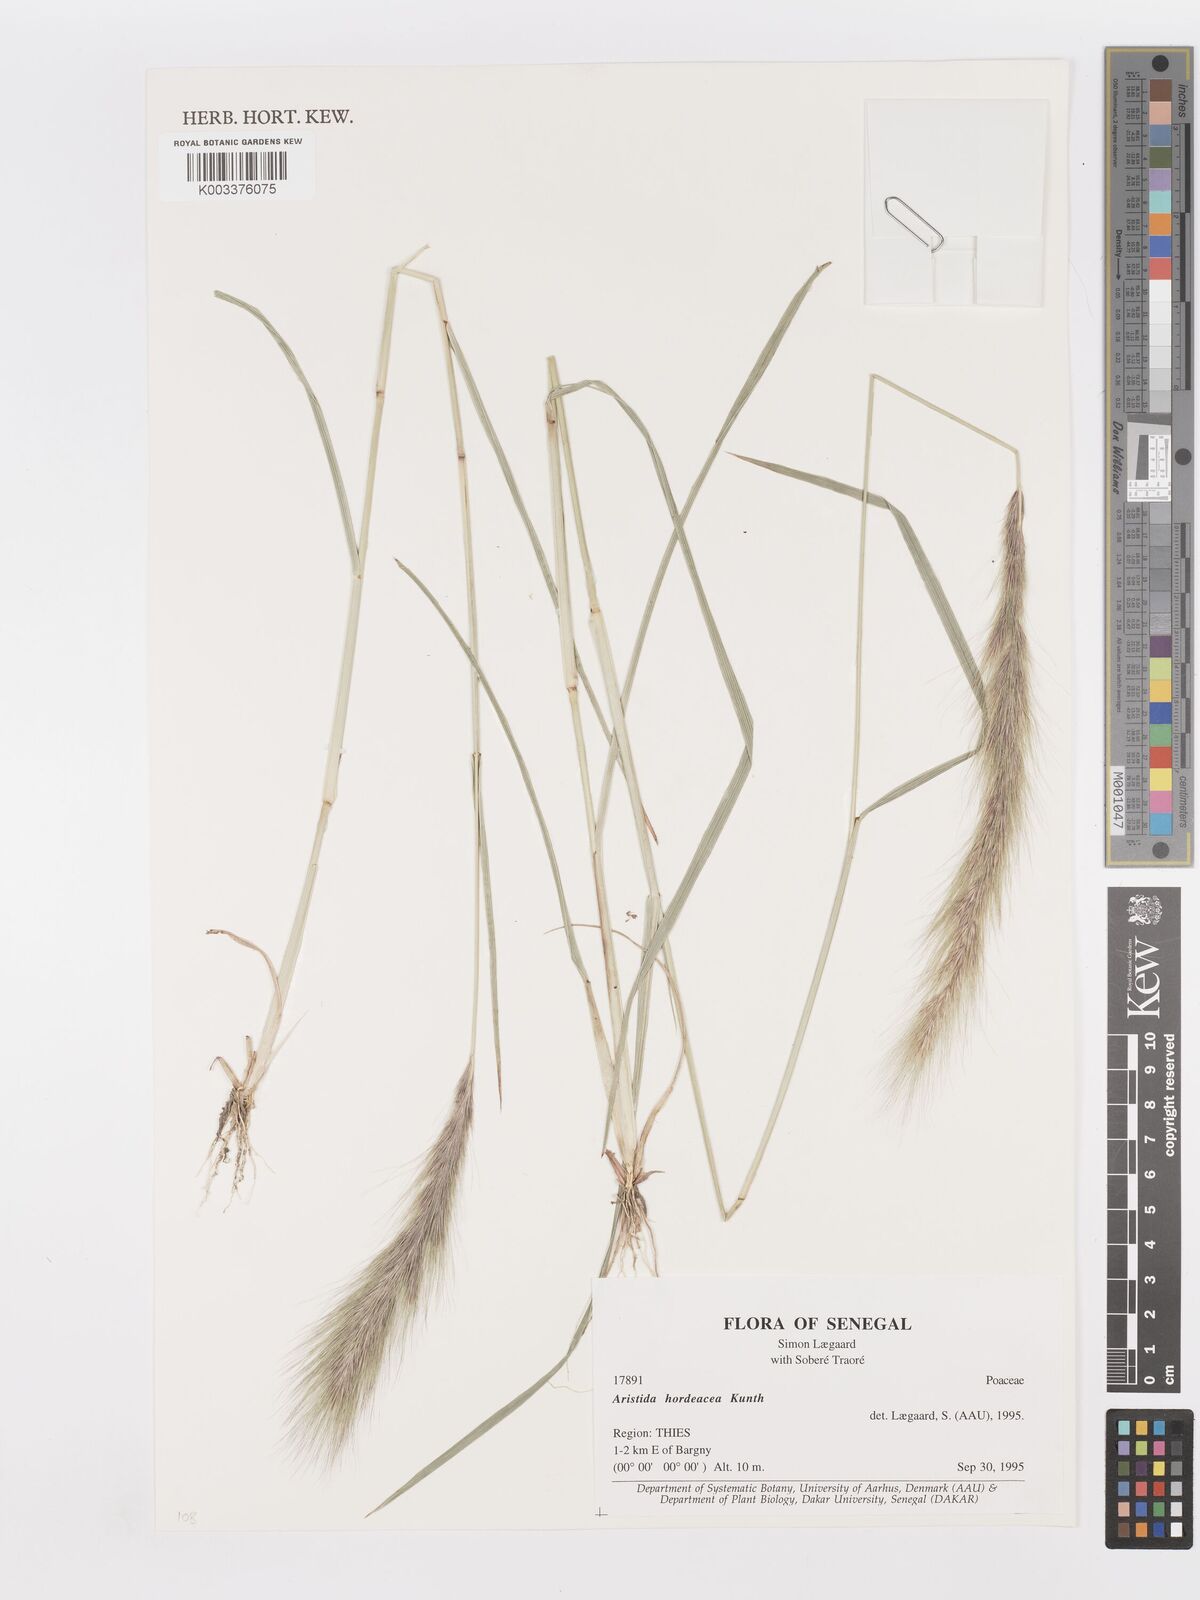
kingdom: Plantae
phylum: Tracheophyta
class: Liliopsida
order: Poales
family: Poaceae
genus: Aristida
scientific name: Aristida hordeacea
